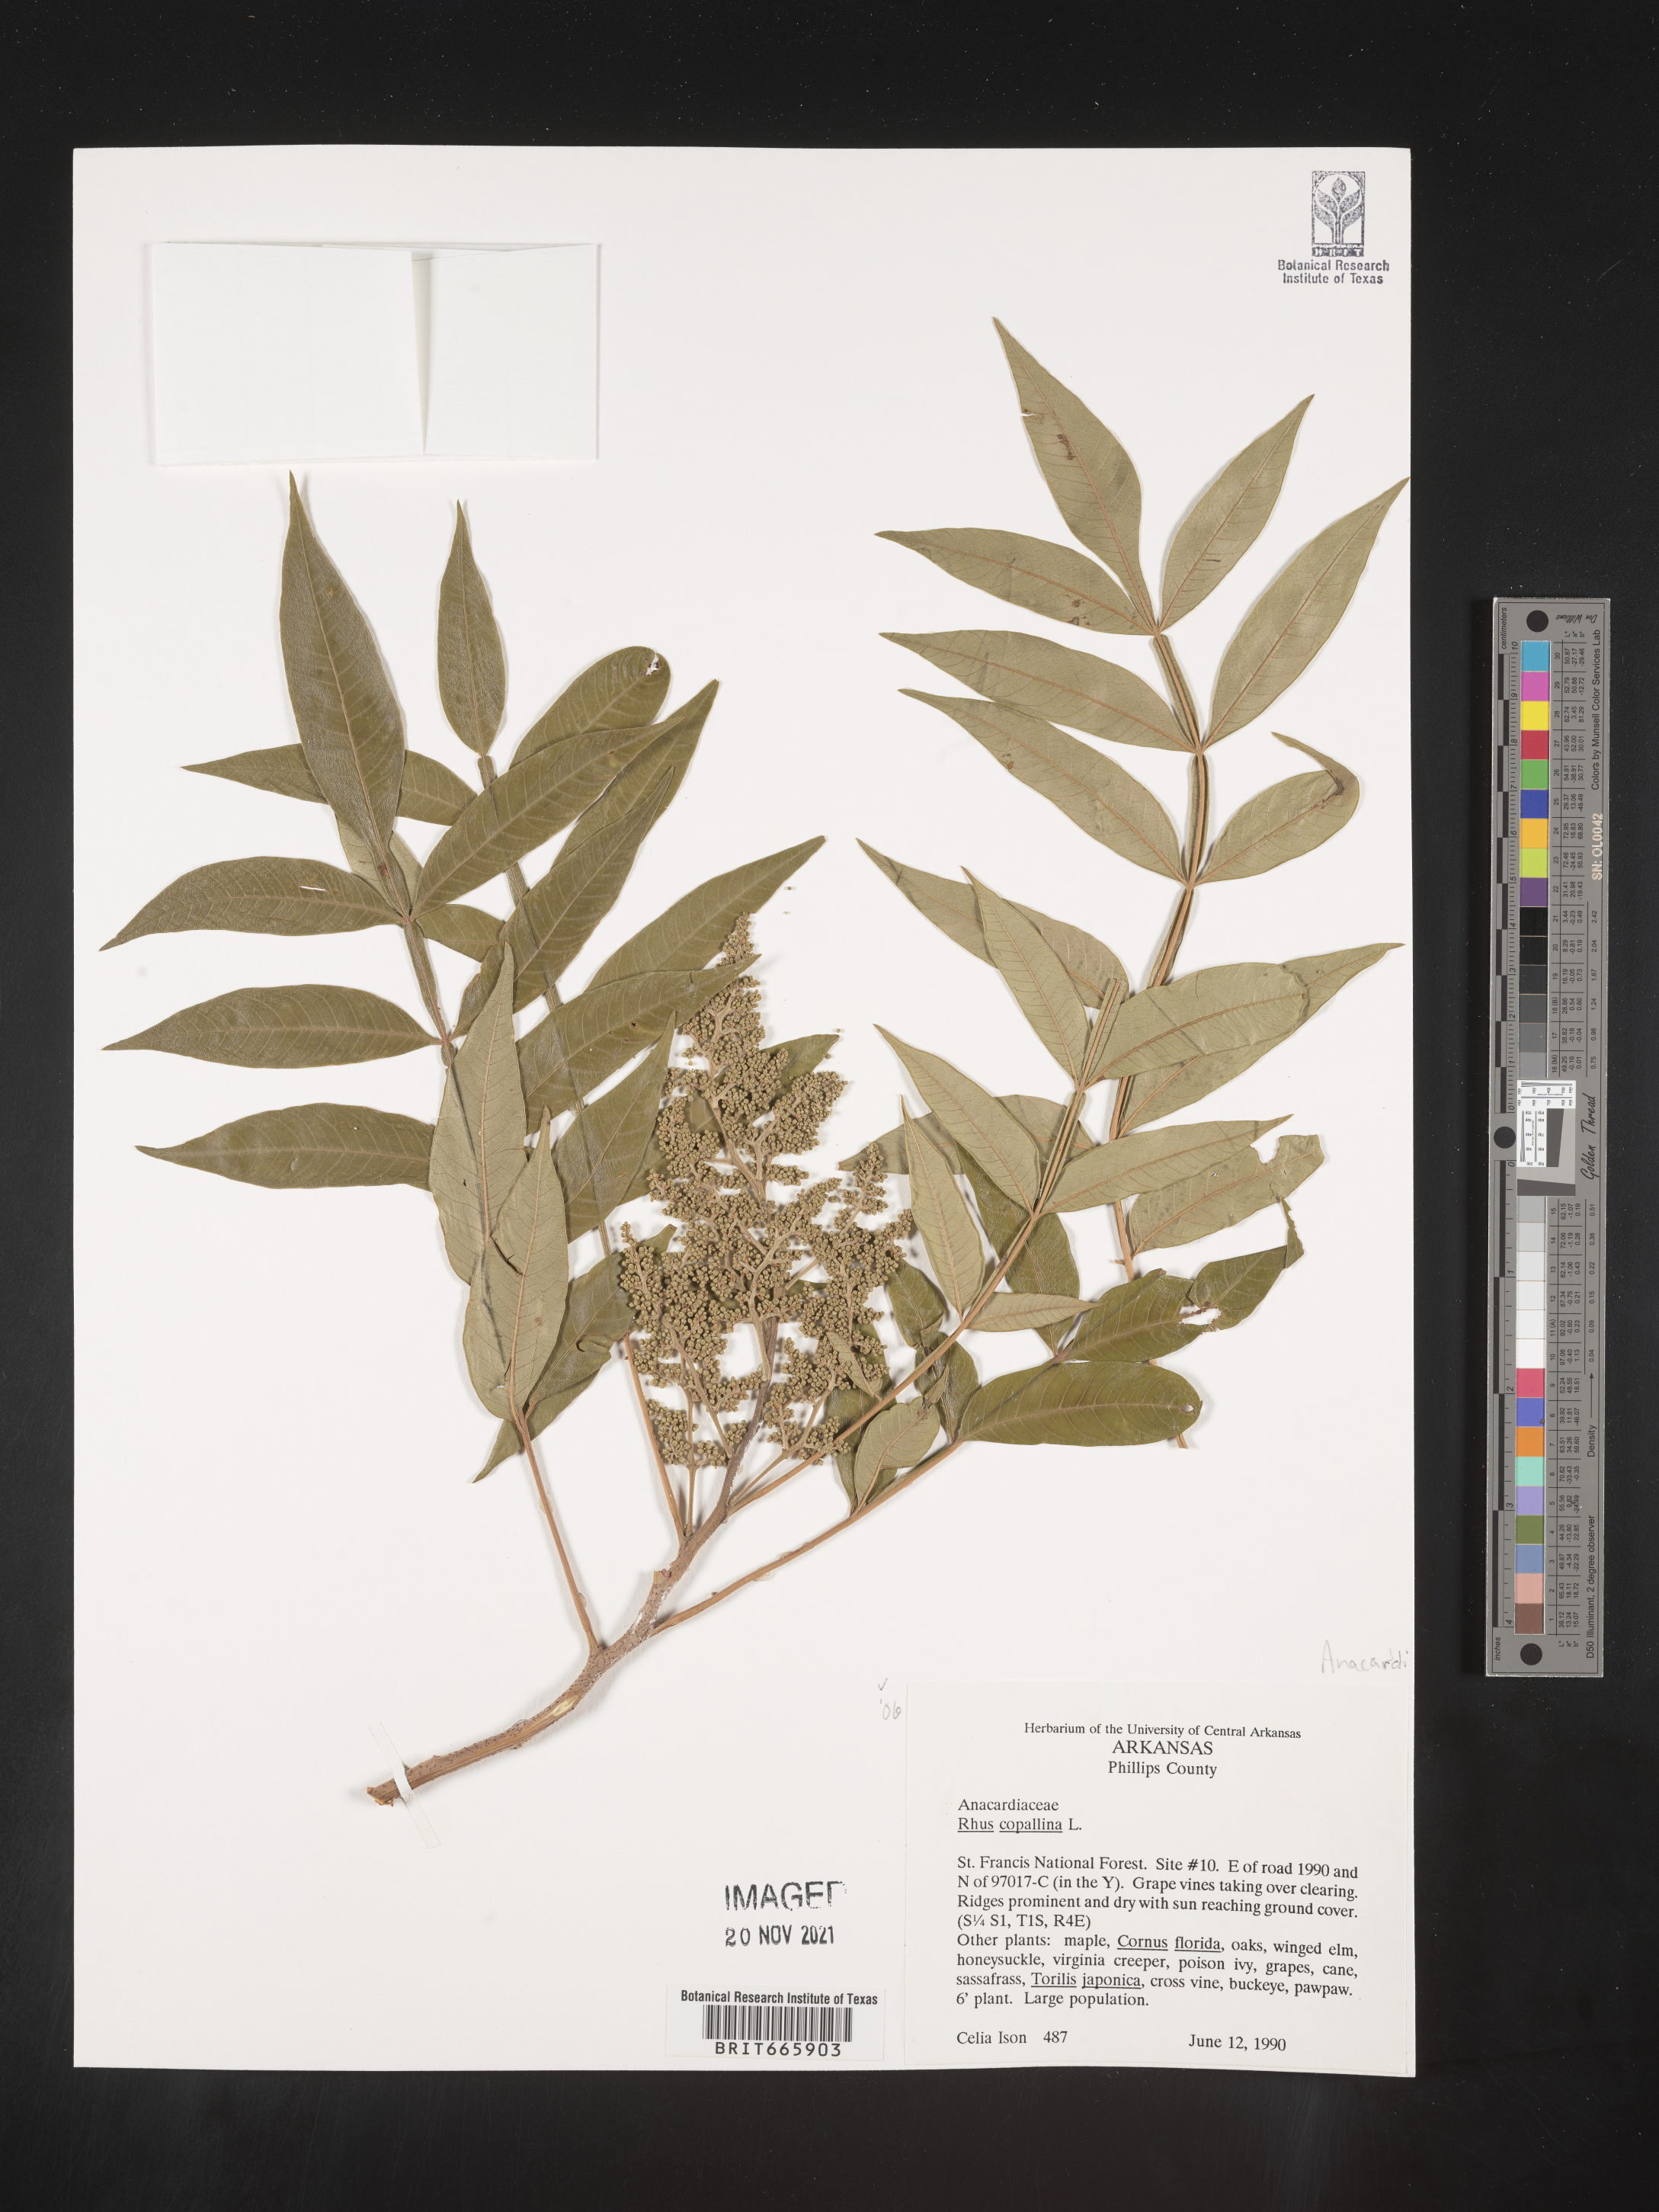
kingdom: Plantae
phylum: Tracheophyta
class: Magnoliopsida
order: Sapindales
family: Anacardiaceae
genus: Rhus
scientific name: Rhus copallina
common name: Shining sumac
